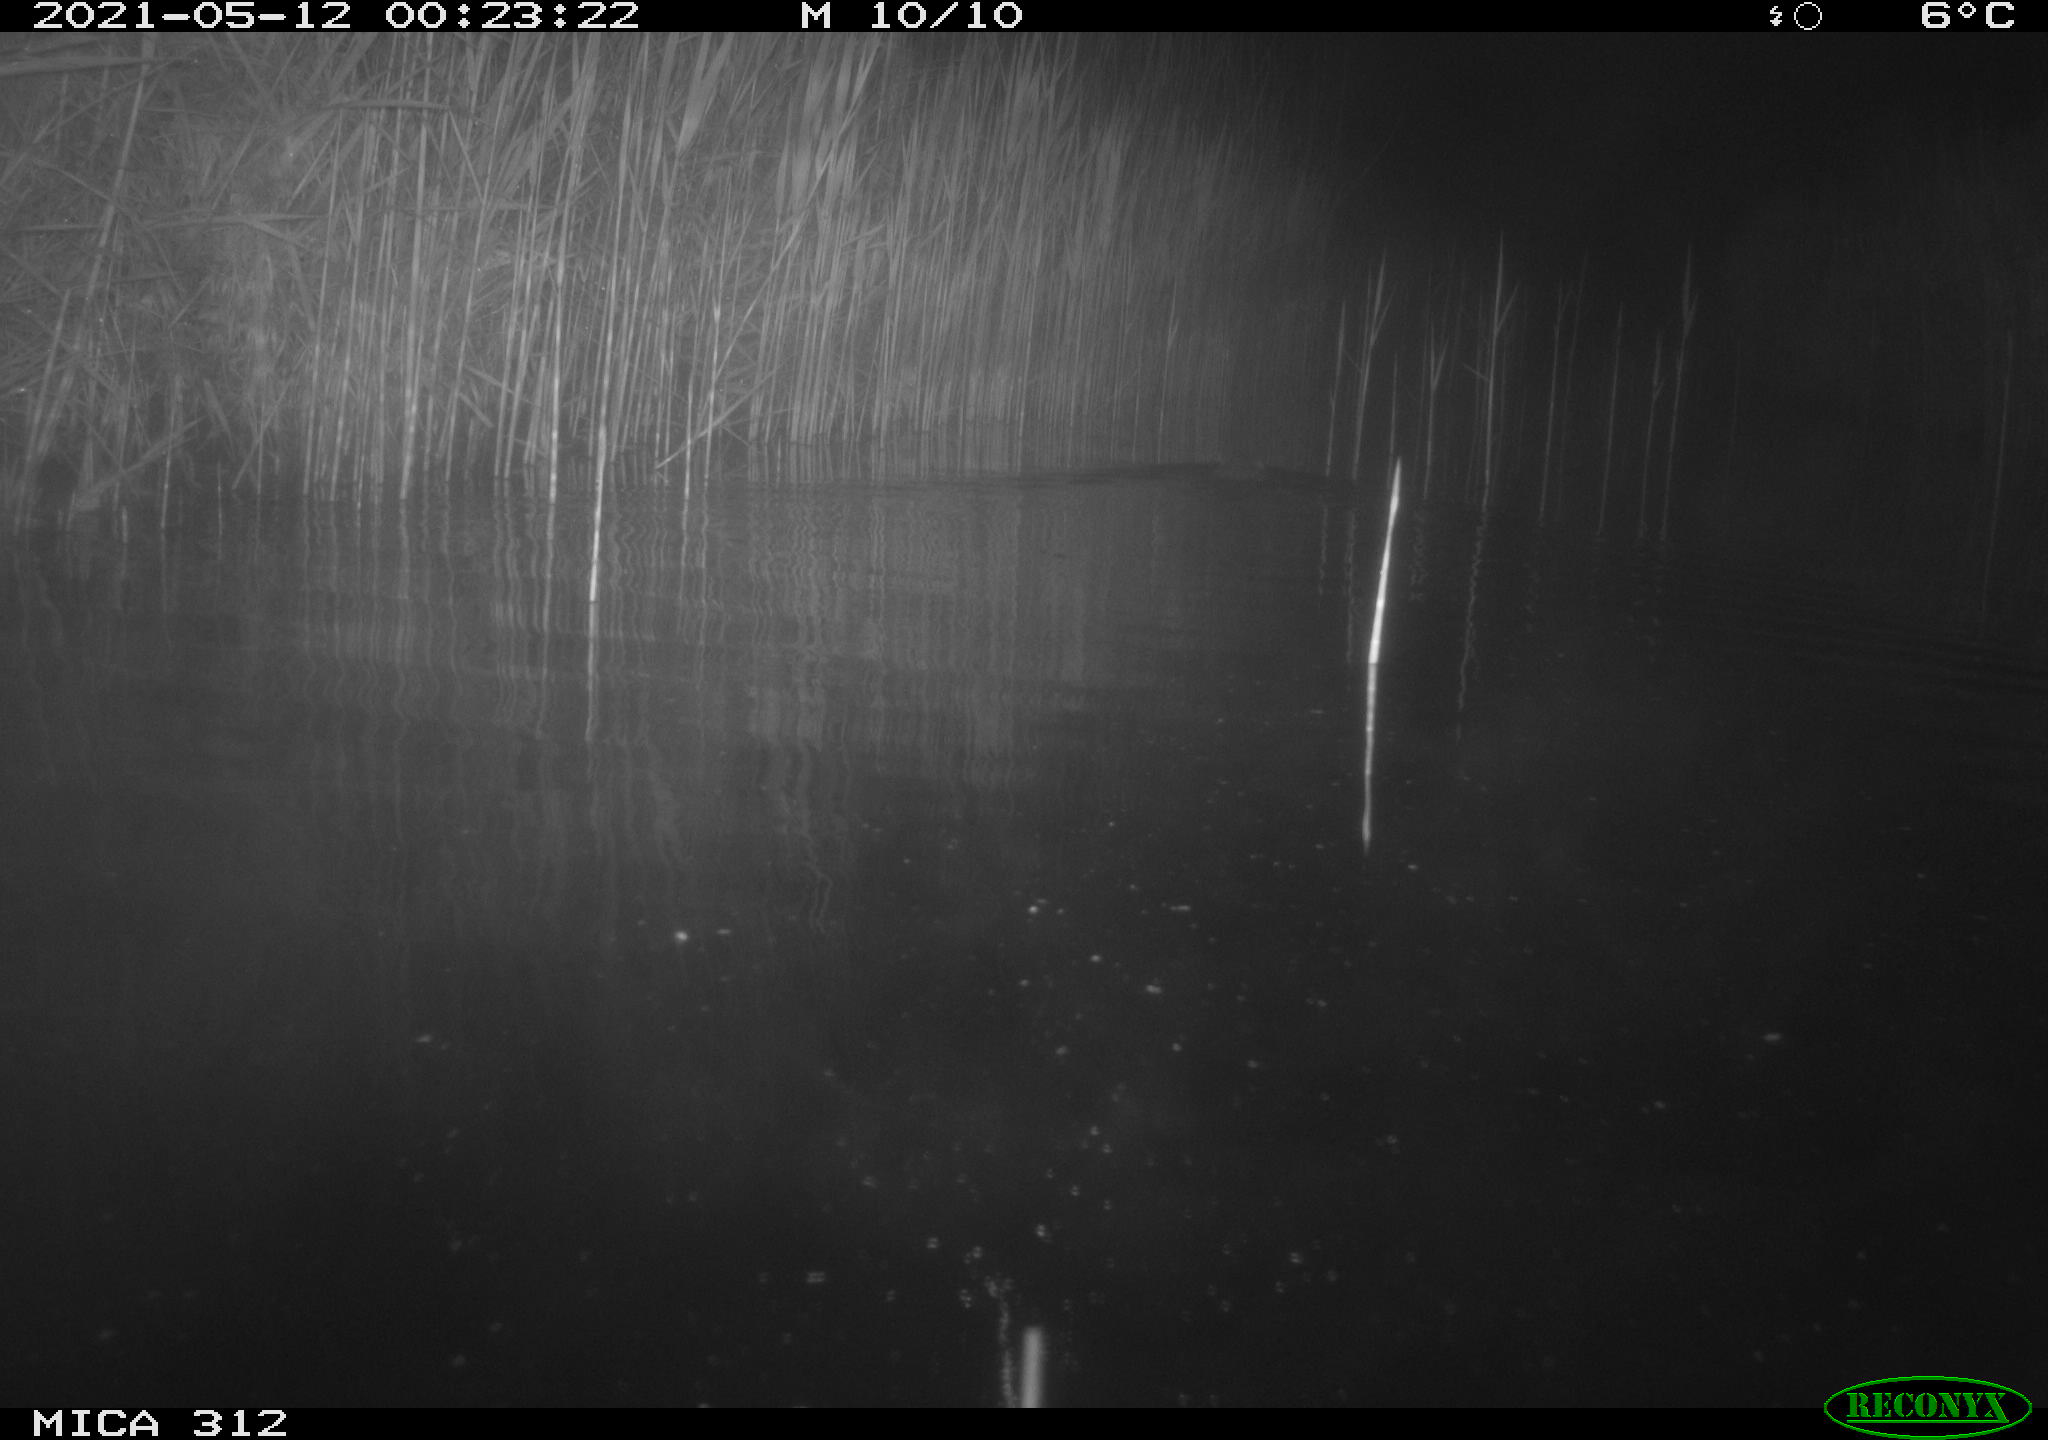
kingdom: Animalia
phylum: Chordata
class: Mammalia
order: Rodentia
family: Cricetidae
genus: Ondatra
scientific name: Ondatra zibethicus
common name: Muskrat
